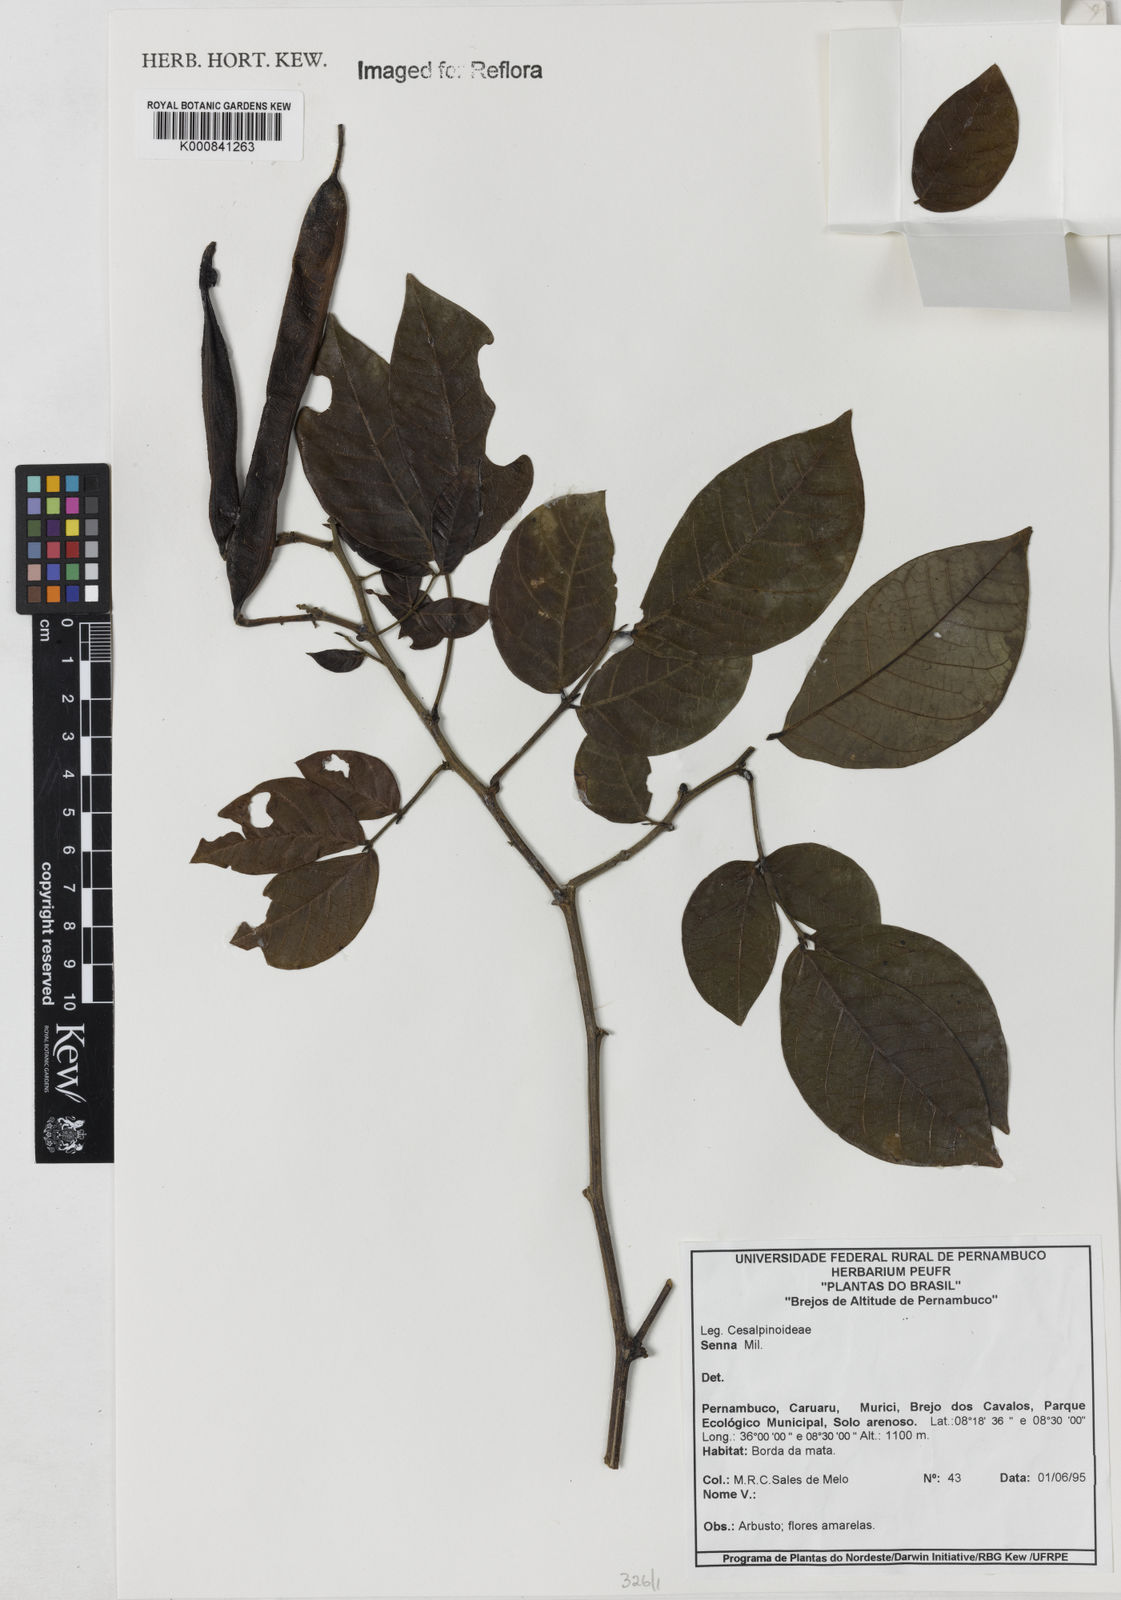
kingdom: Plantae
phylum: Tracheophyta
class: Magnoliopsida
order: Fabales
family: Fabaceae
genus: Senna
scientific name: Senna quinquangulata
